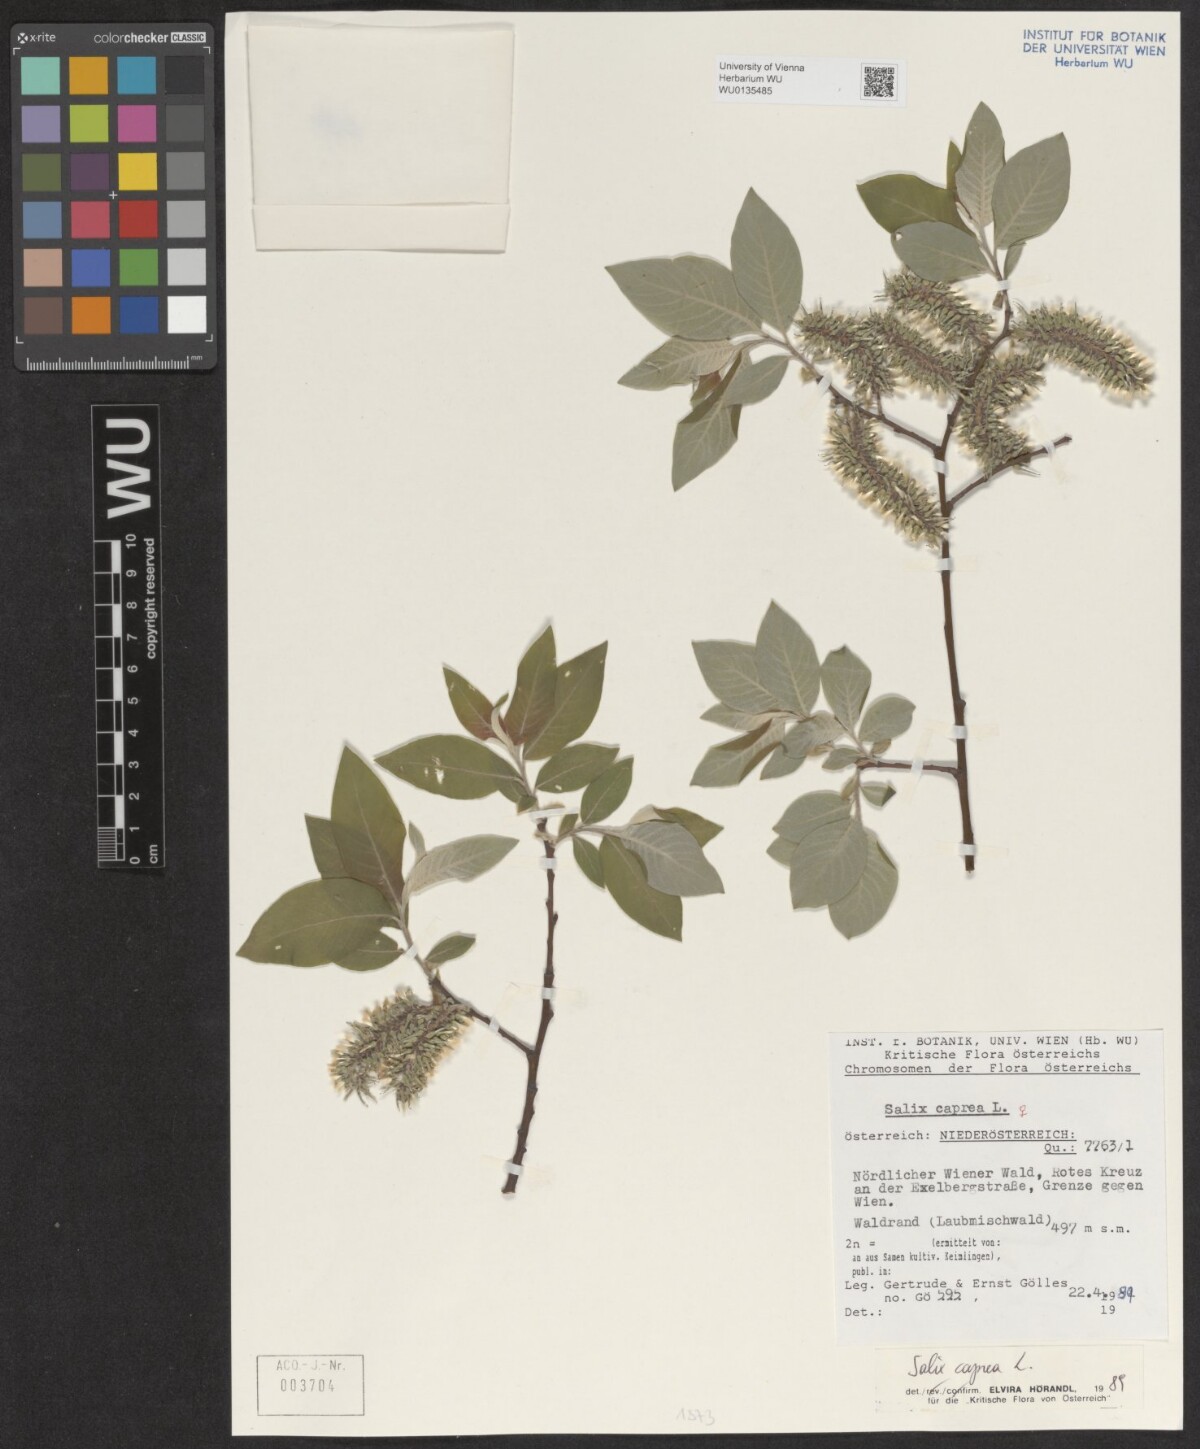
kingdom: Plantae
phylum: Tracheophyta
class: Magnoliopsida
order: Malpighiales
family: Salicaceae
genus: Salix
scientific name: Salix caprea
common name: Goat willow
